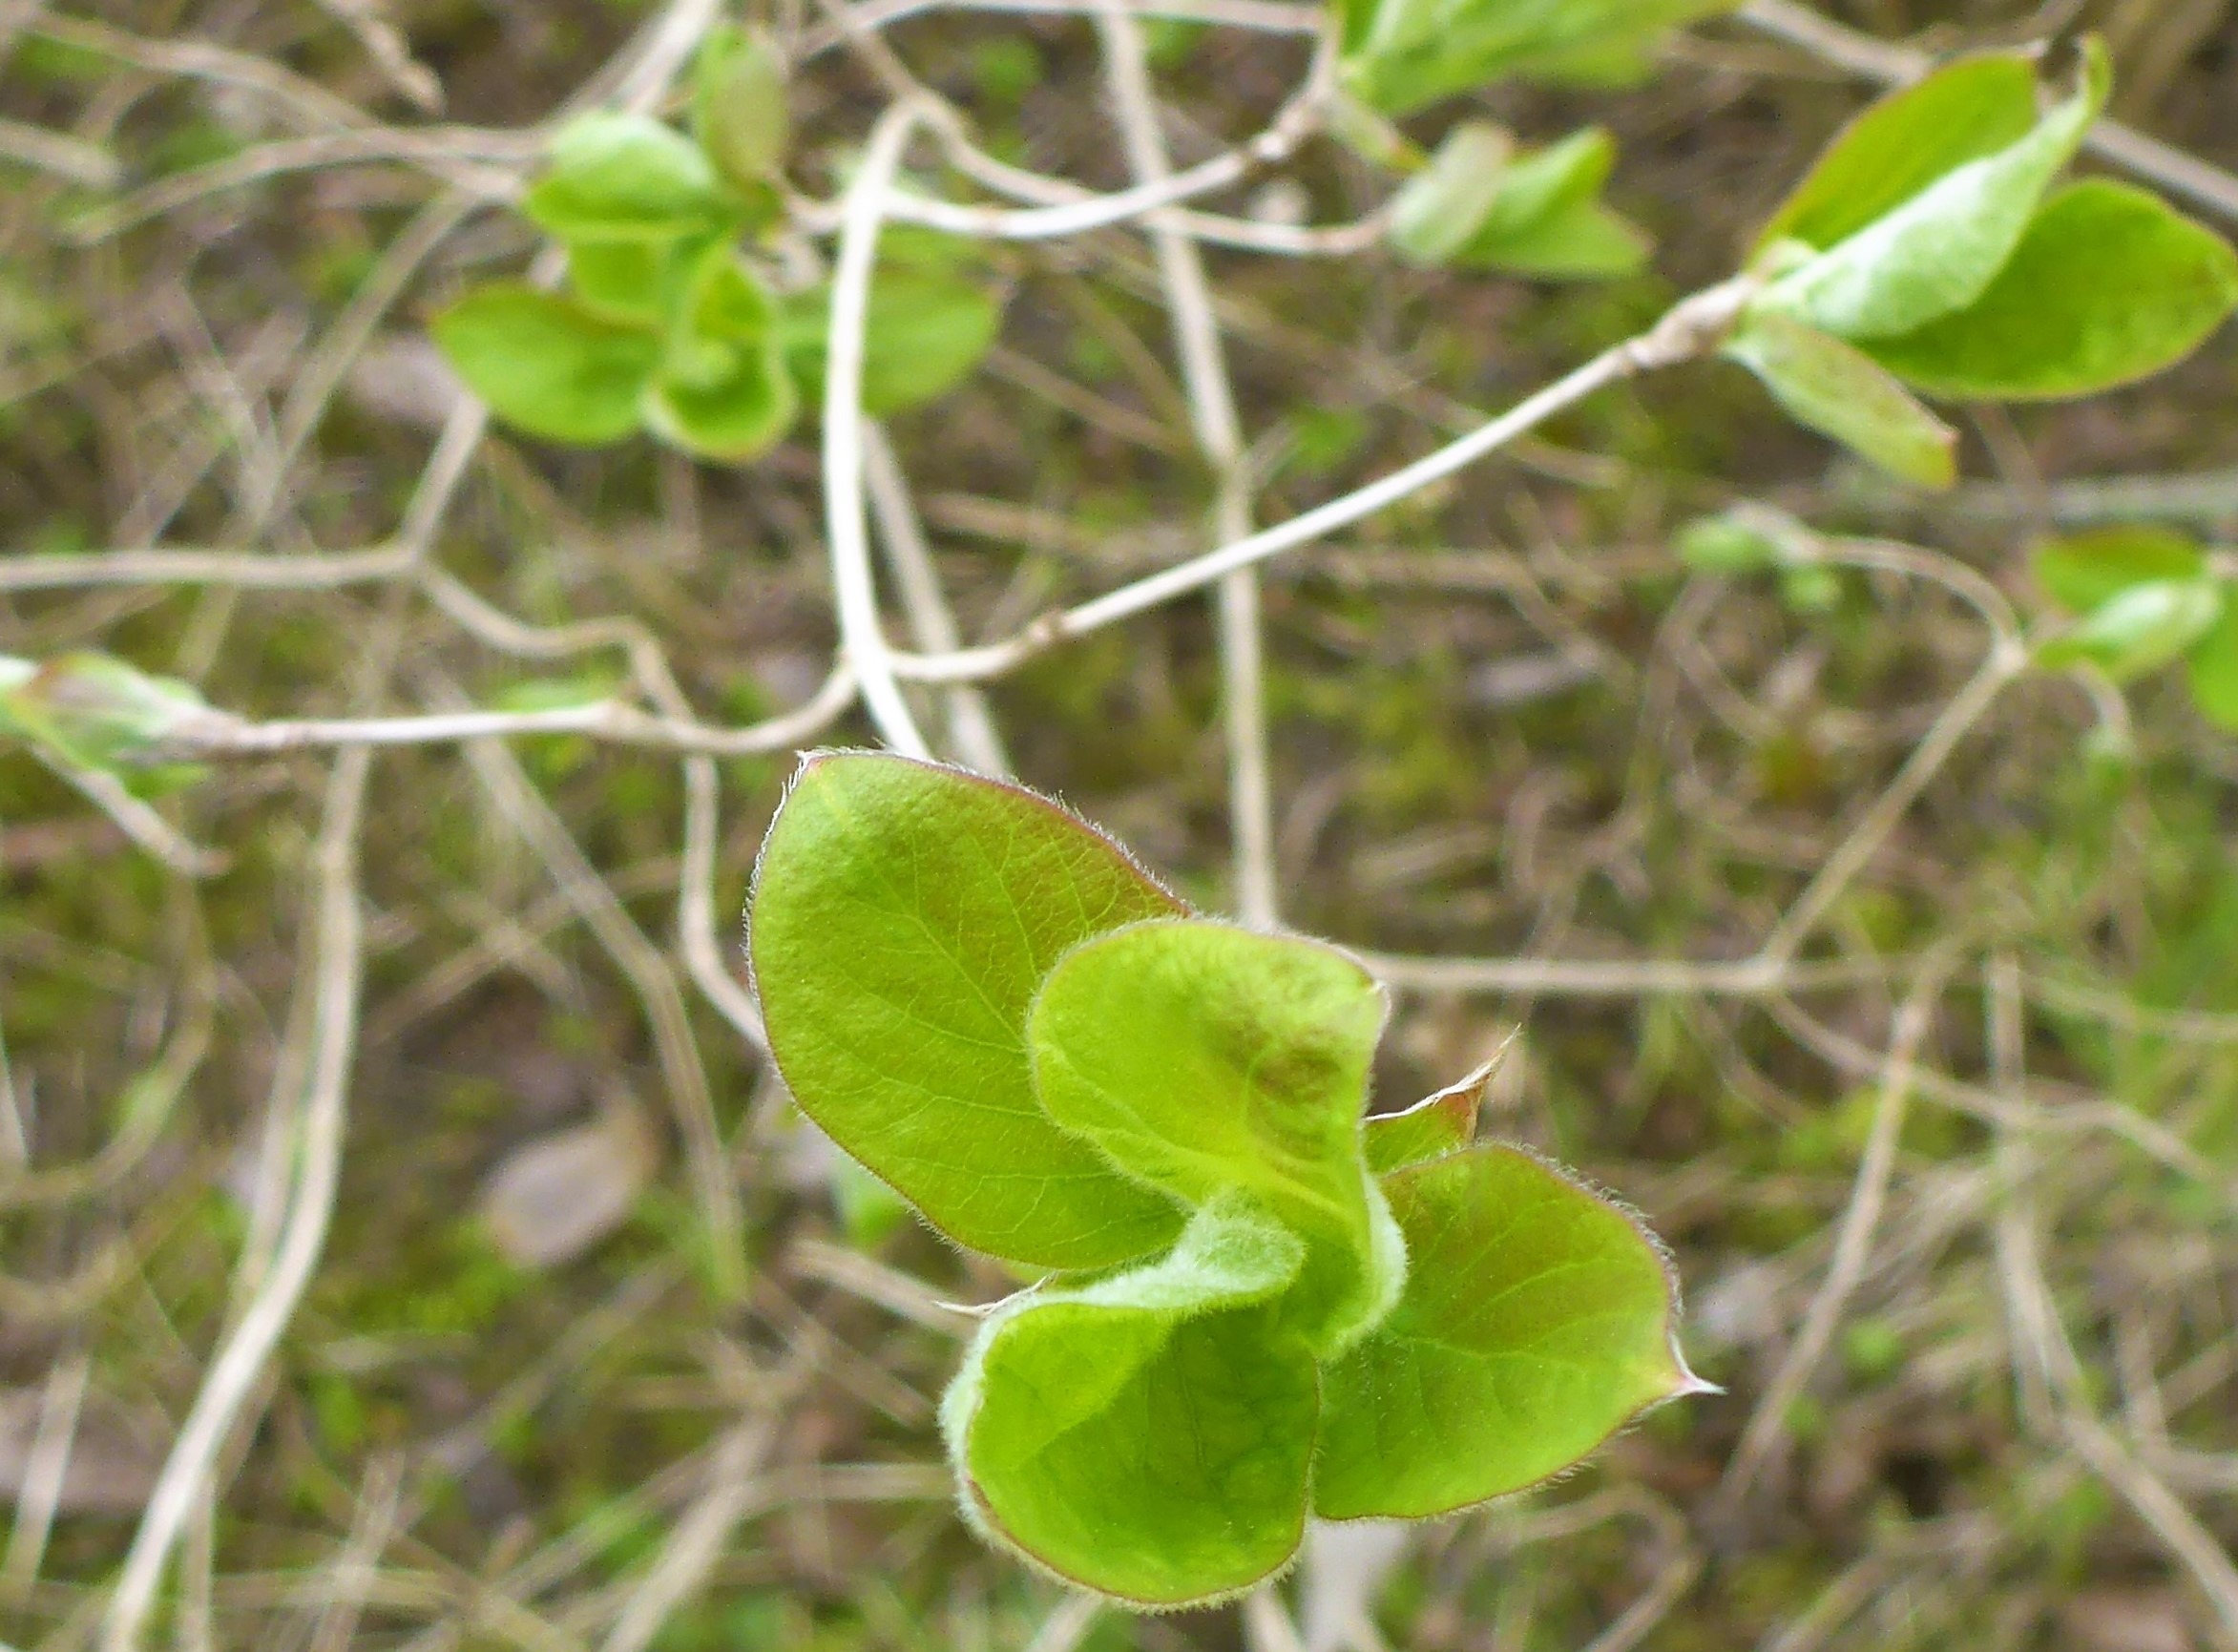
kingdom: Plantae
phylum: Tracheophyta
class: Magnoliopsida
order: Dipsacales
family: Caprifoliaceae
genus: Lonicera
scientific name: Lonicera xylosteum
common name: Dunet gedeblad
